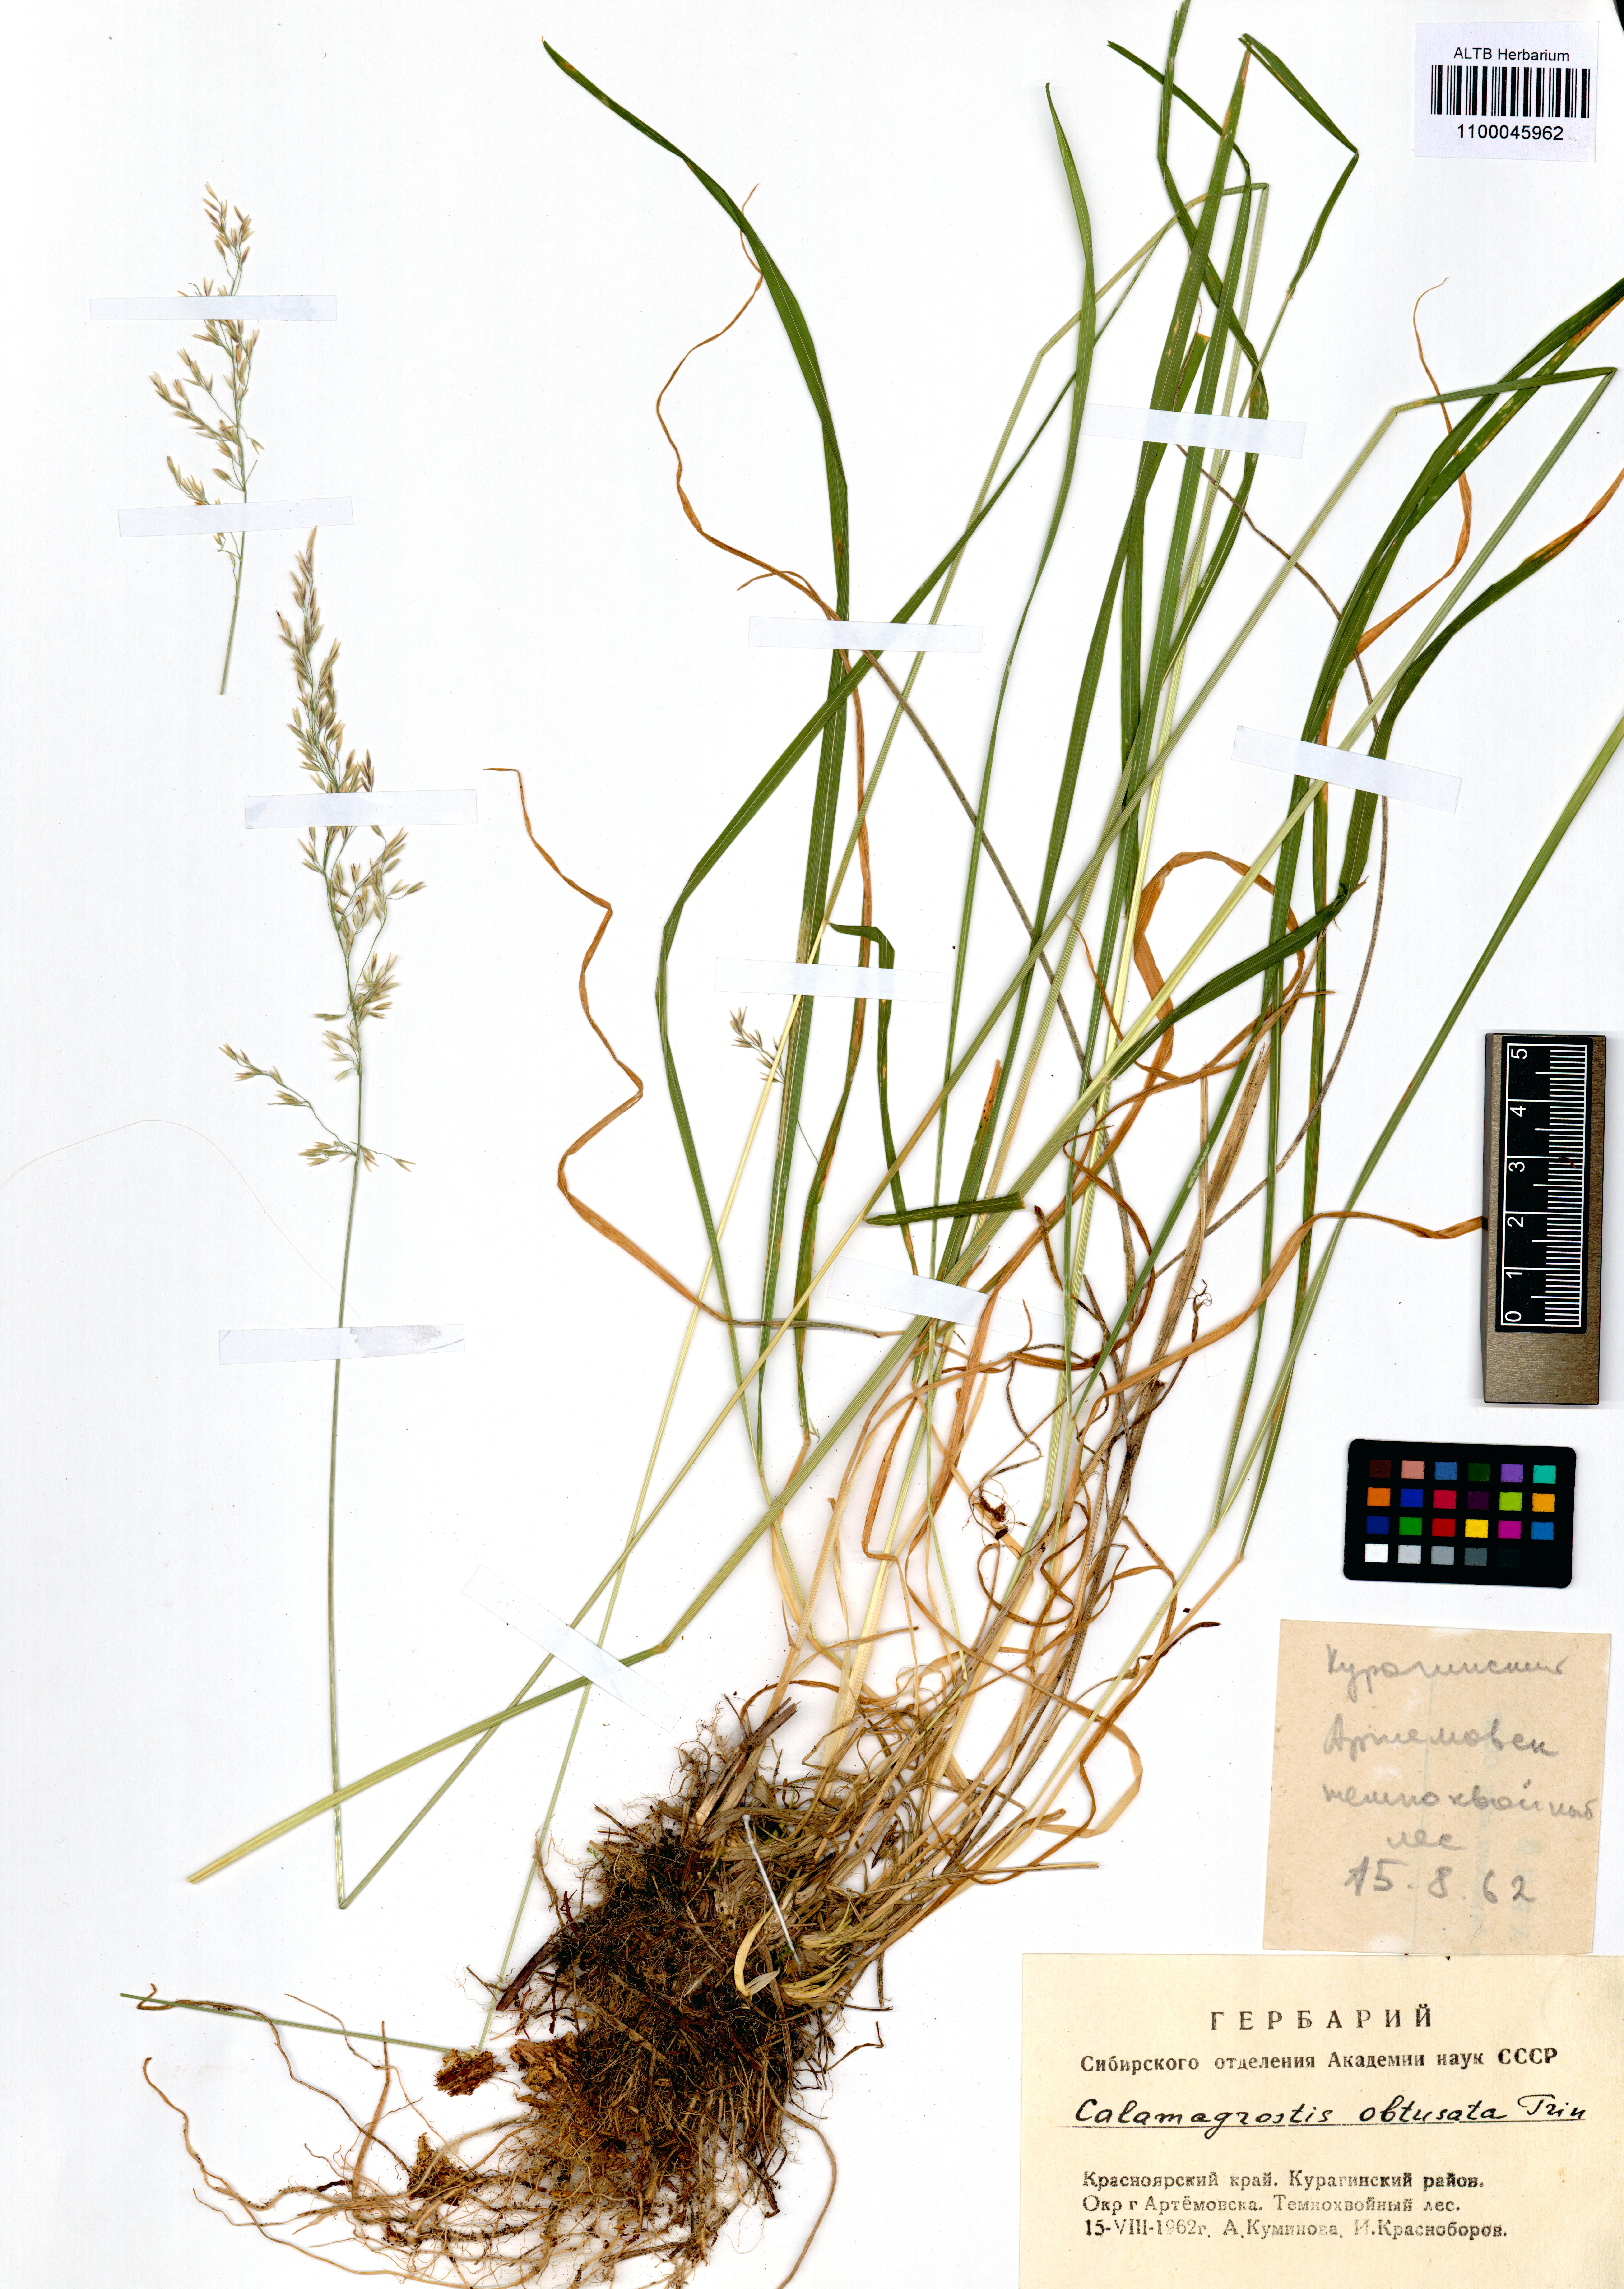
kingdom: Plantae
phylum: Tracheophyta
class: Liliopsida
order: Poales
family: Poaceae
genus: Calamagrostis
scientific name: Calamagrostis obtusata
